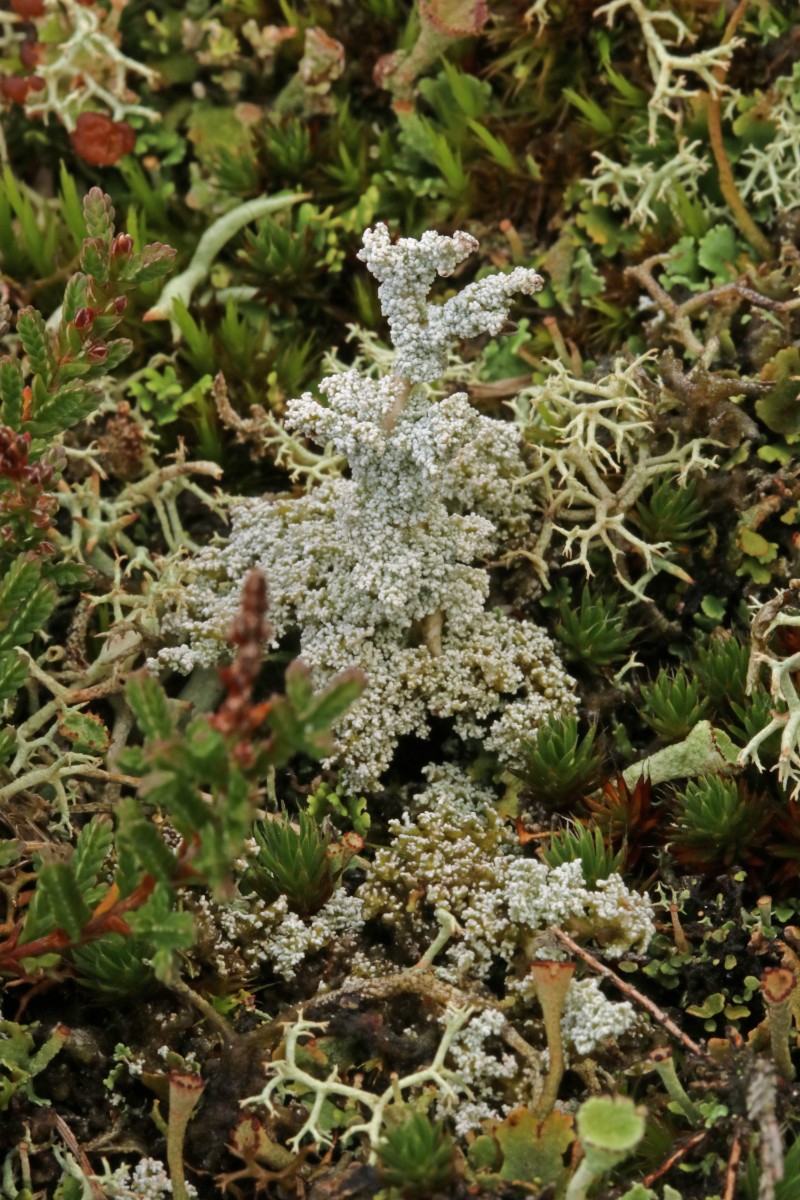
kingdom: Fungi
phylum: Ascomycota
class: Lecanoromycetes
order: Lecanorales
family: Stereocaulaceae
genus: Stereocaulon
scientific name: Stereocaulon saxatile
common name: klit-korallav
